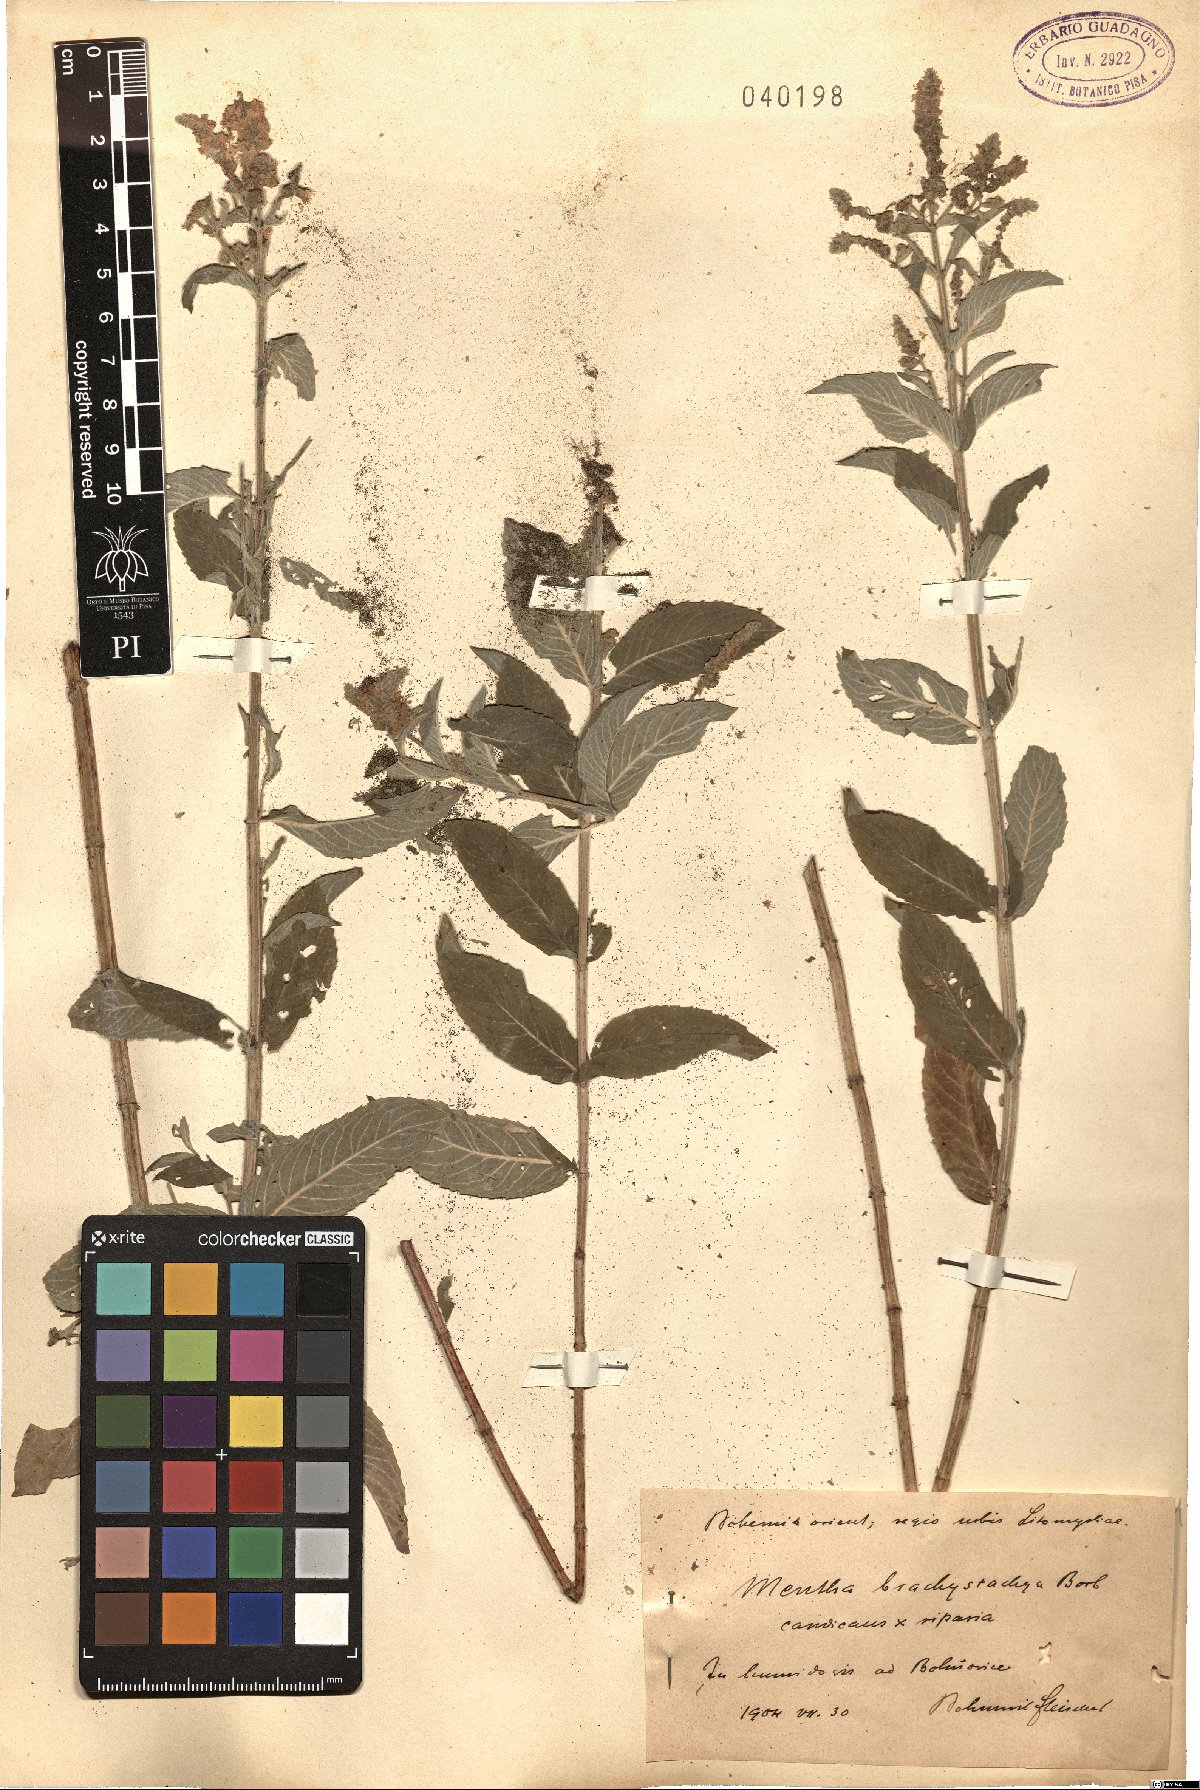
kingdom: Plantae
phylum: Tracheophyta
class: Magnoliopsida
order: Lamiales
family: Lamiaceae
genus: Mentha
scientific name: Mentha dumetorum
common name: Bush-loving mint
